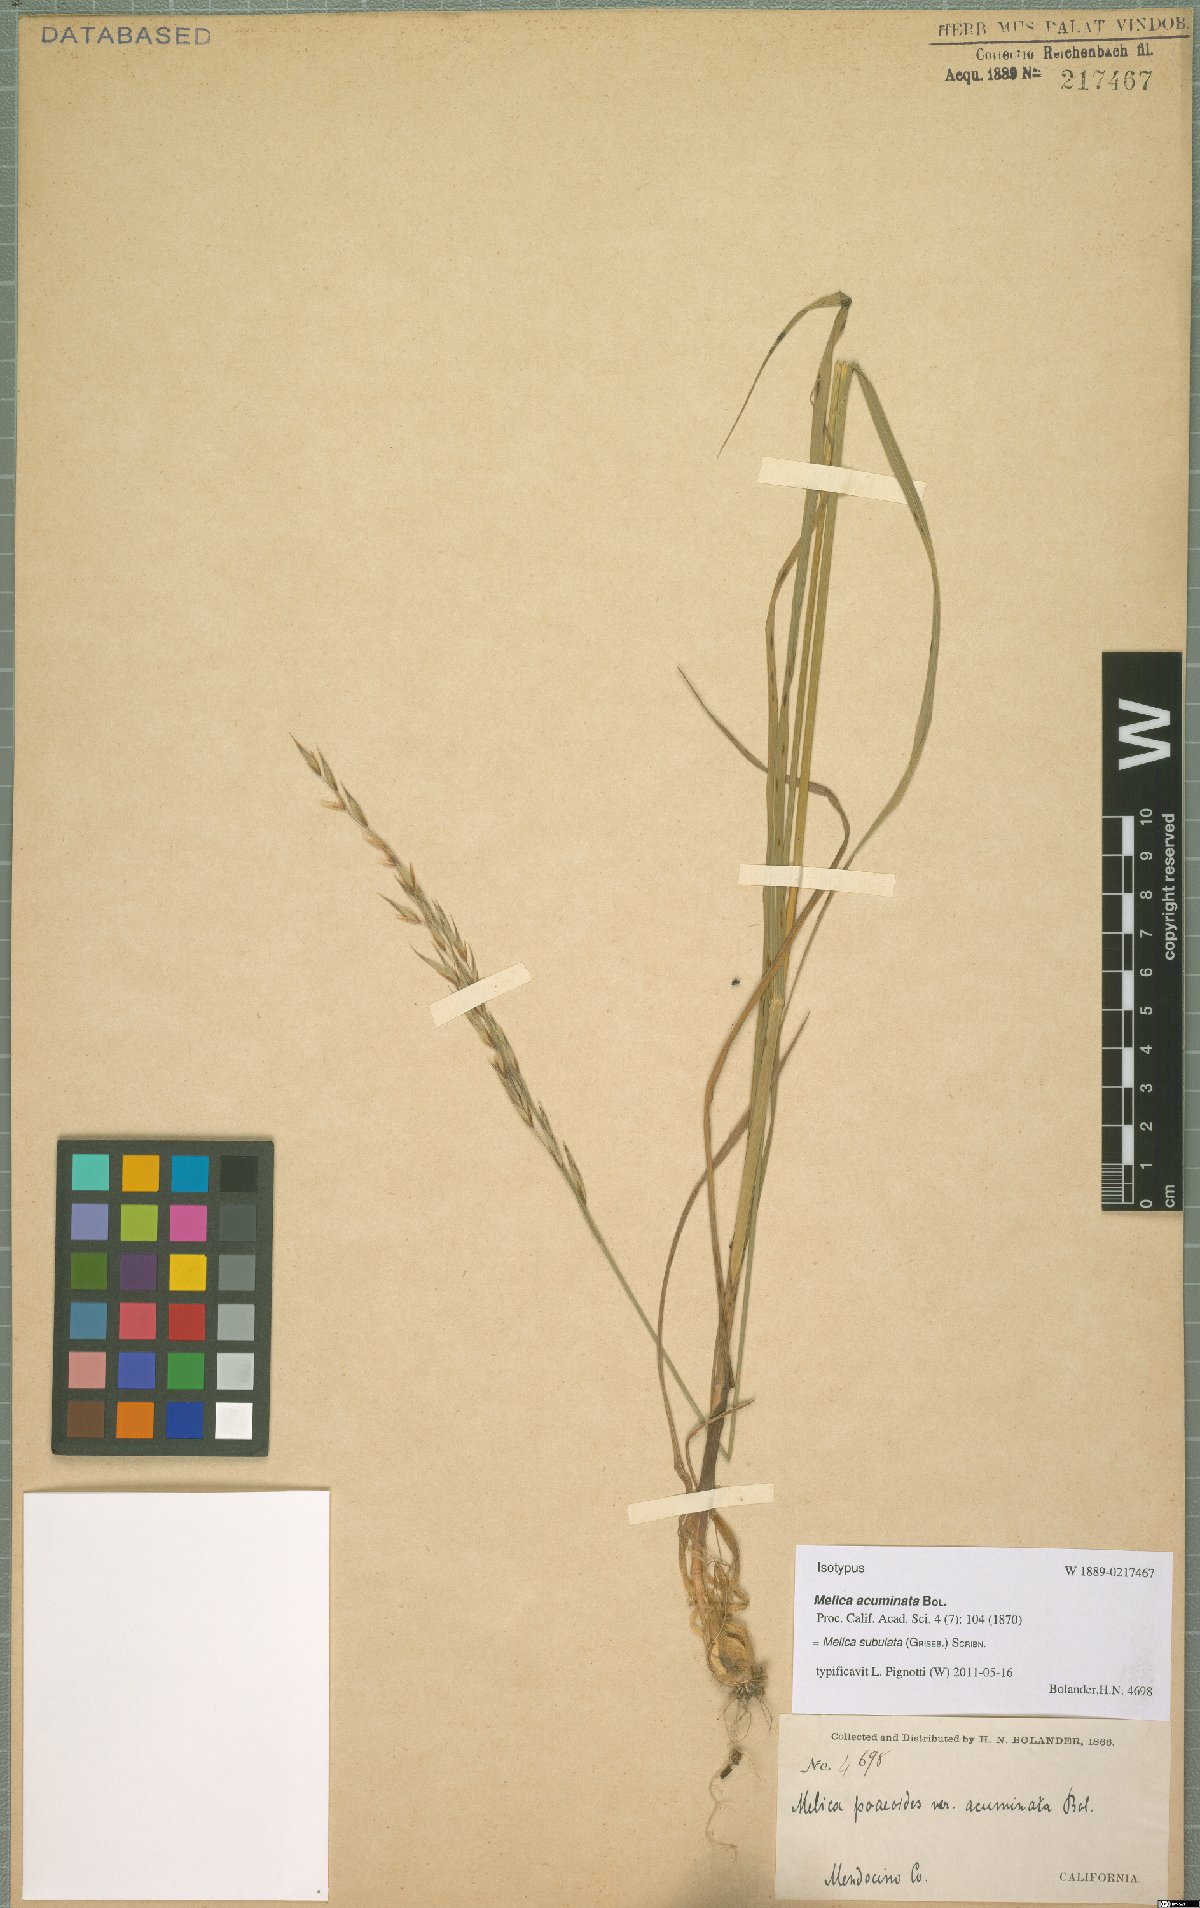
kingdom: Plantae
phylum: Tracheophyta
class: Liliopsida
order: Poales
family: Poaceae
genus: Melica
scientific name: Melica subulata
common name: Tapered oniongrass
